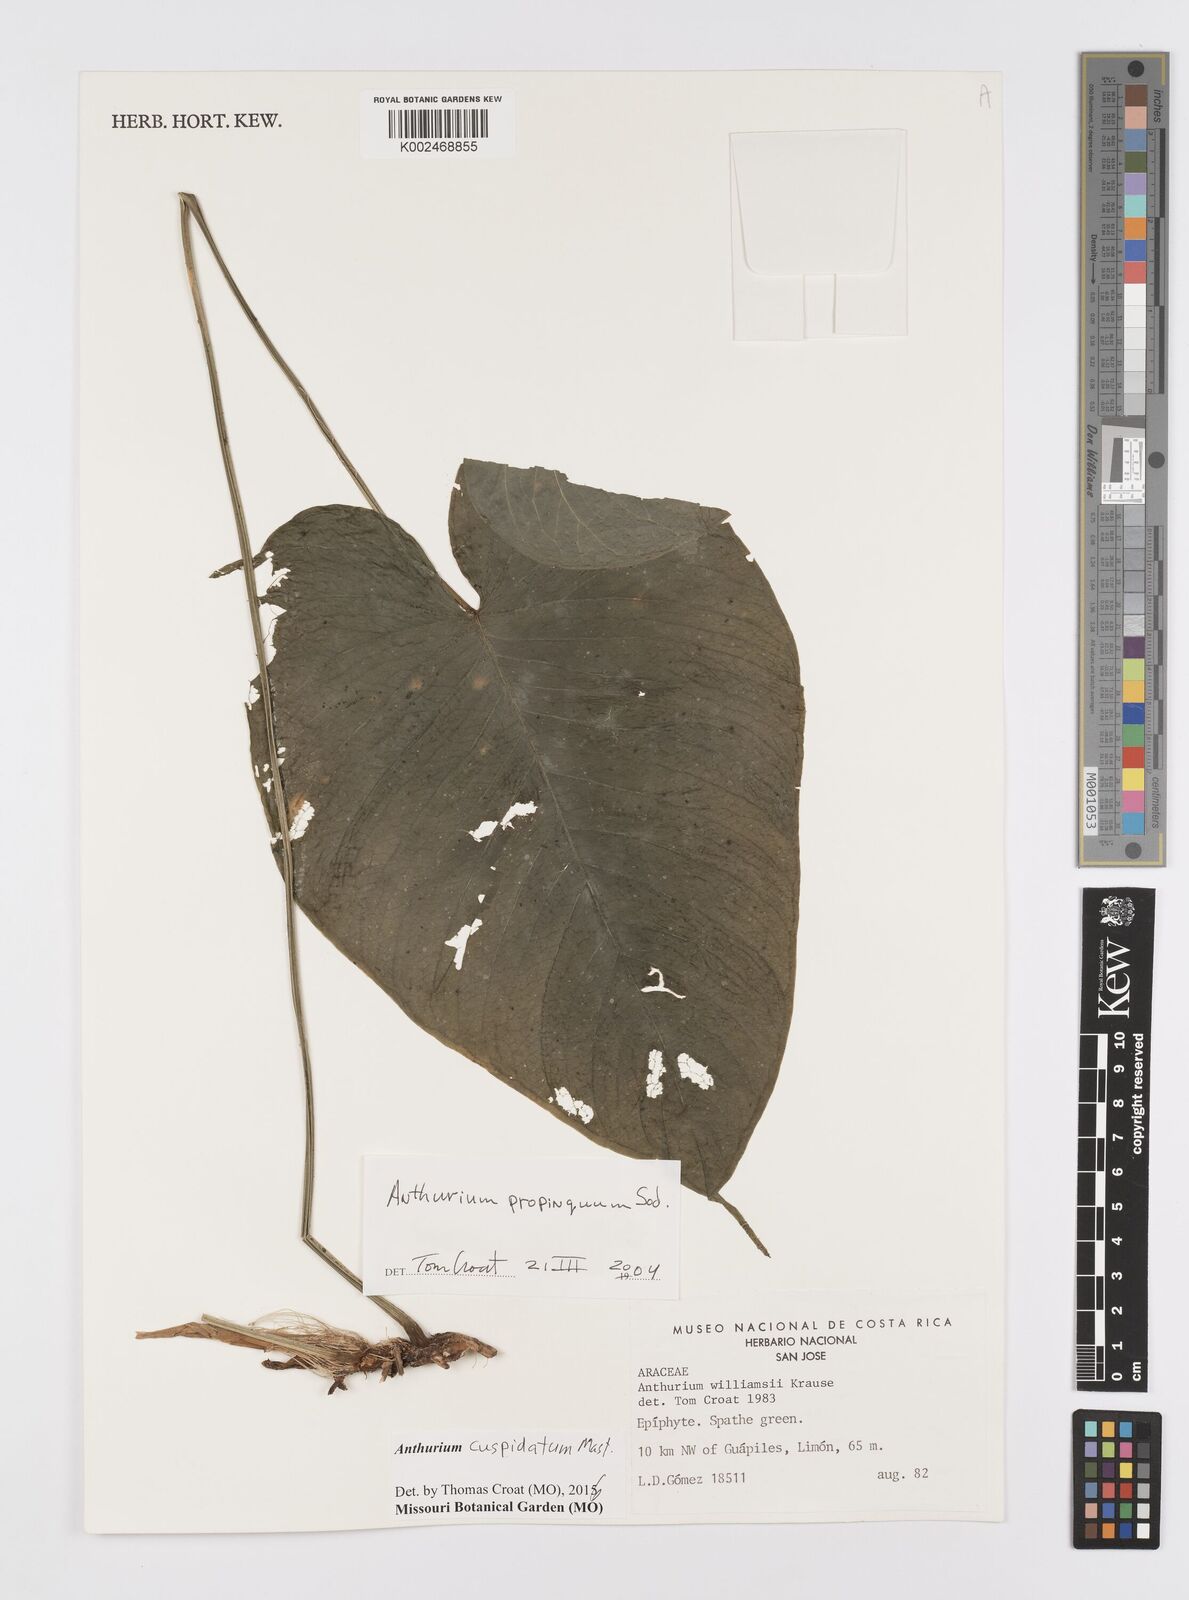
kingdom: Plantae
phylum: Tracheophyta
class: Liliopsida
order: Alismatales
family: Araceae
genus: Anthurium
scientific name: Anthurium cuspidatum
